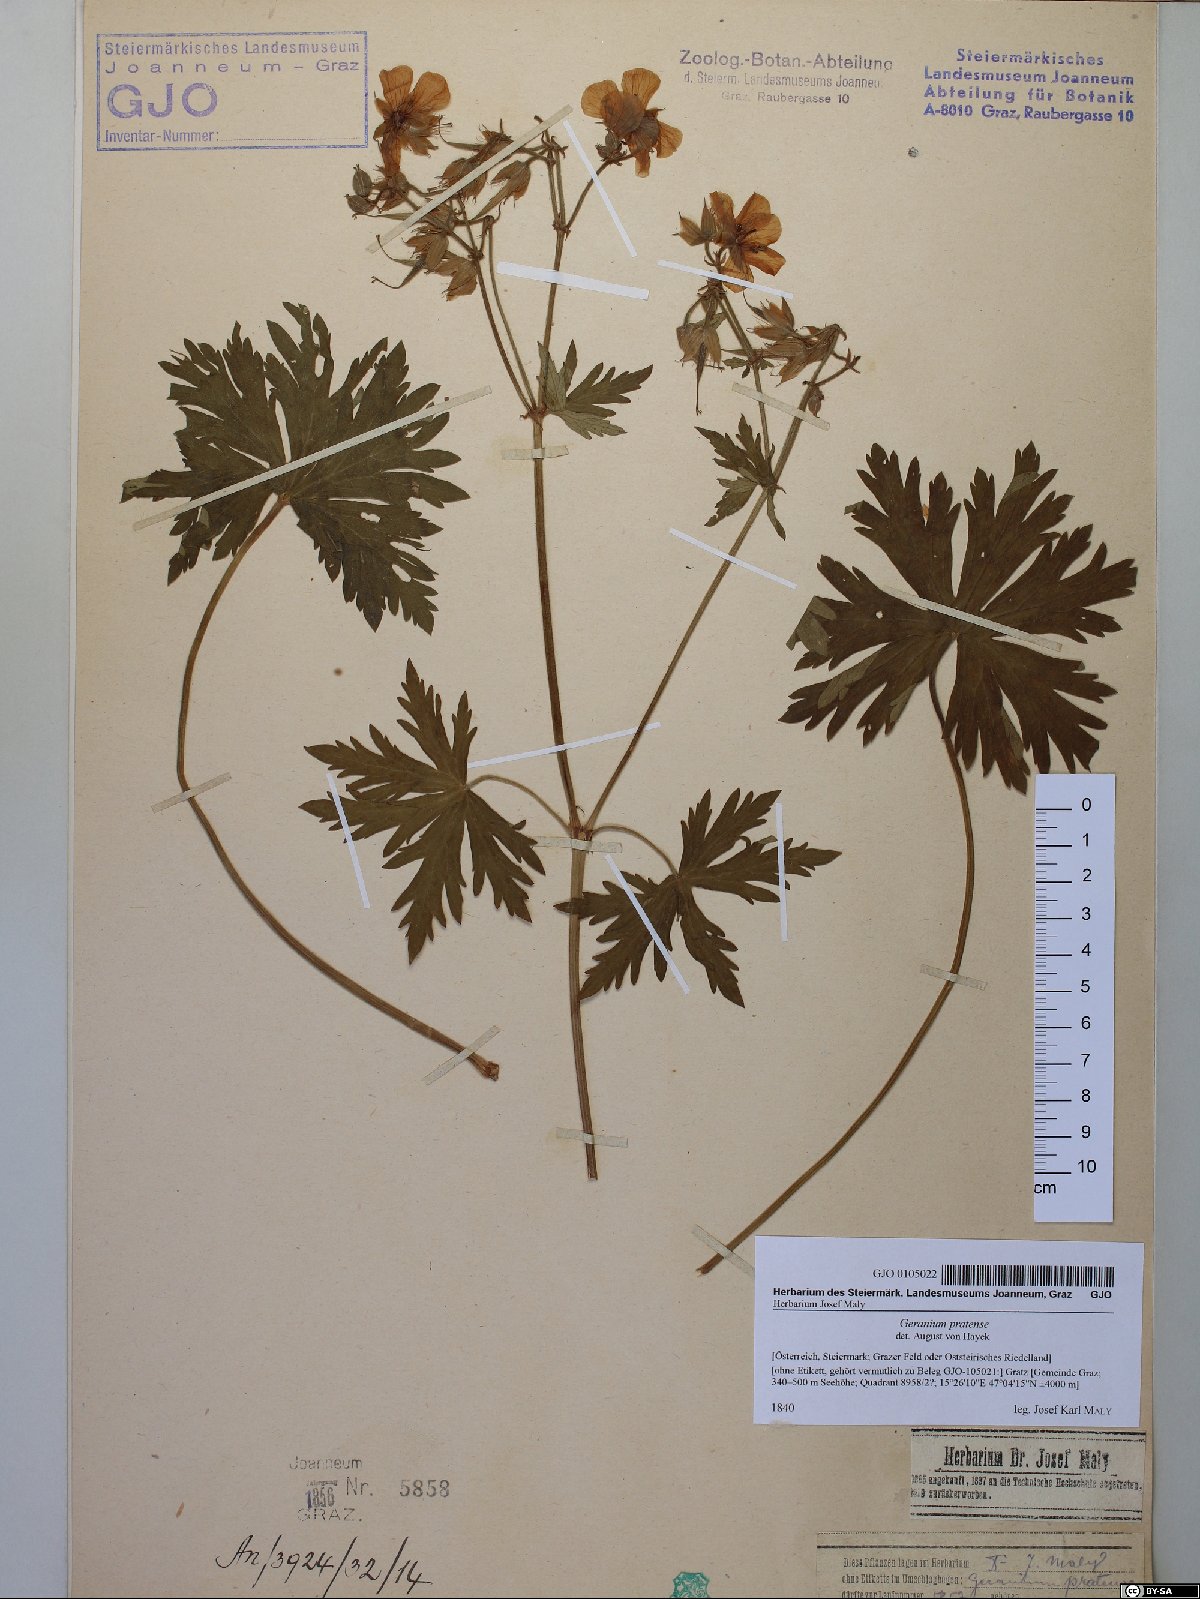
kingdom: Plantae
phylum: Tracheophyta
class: Magnoliopsida
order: Geraniales
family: Geraniaceae
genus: Geranium
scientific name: Geranium pratense
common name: Meadow crane's-bill
